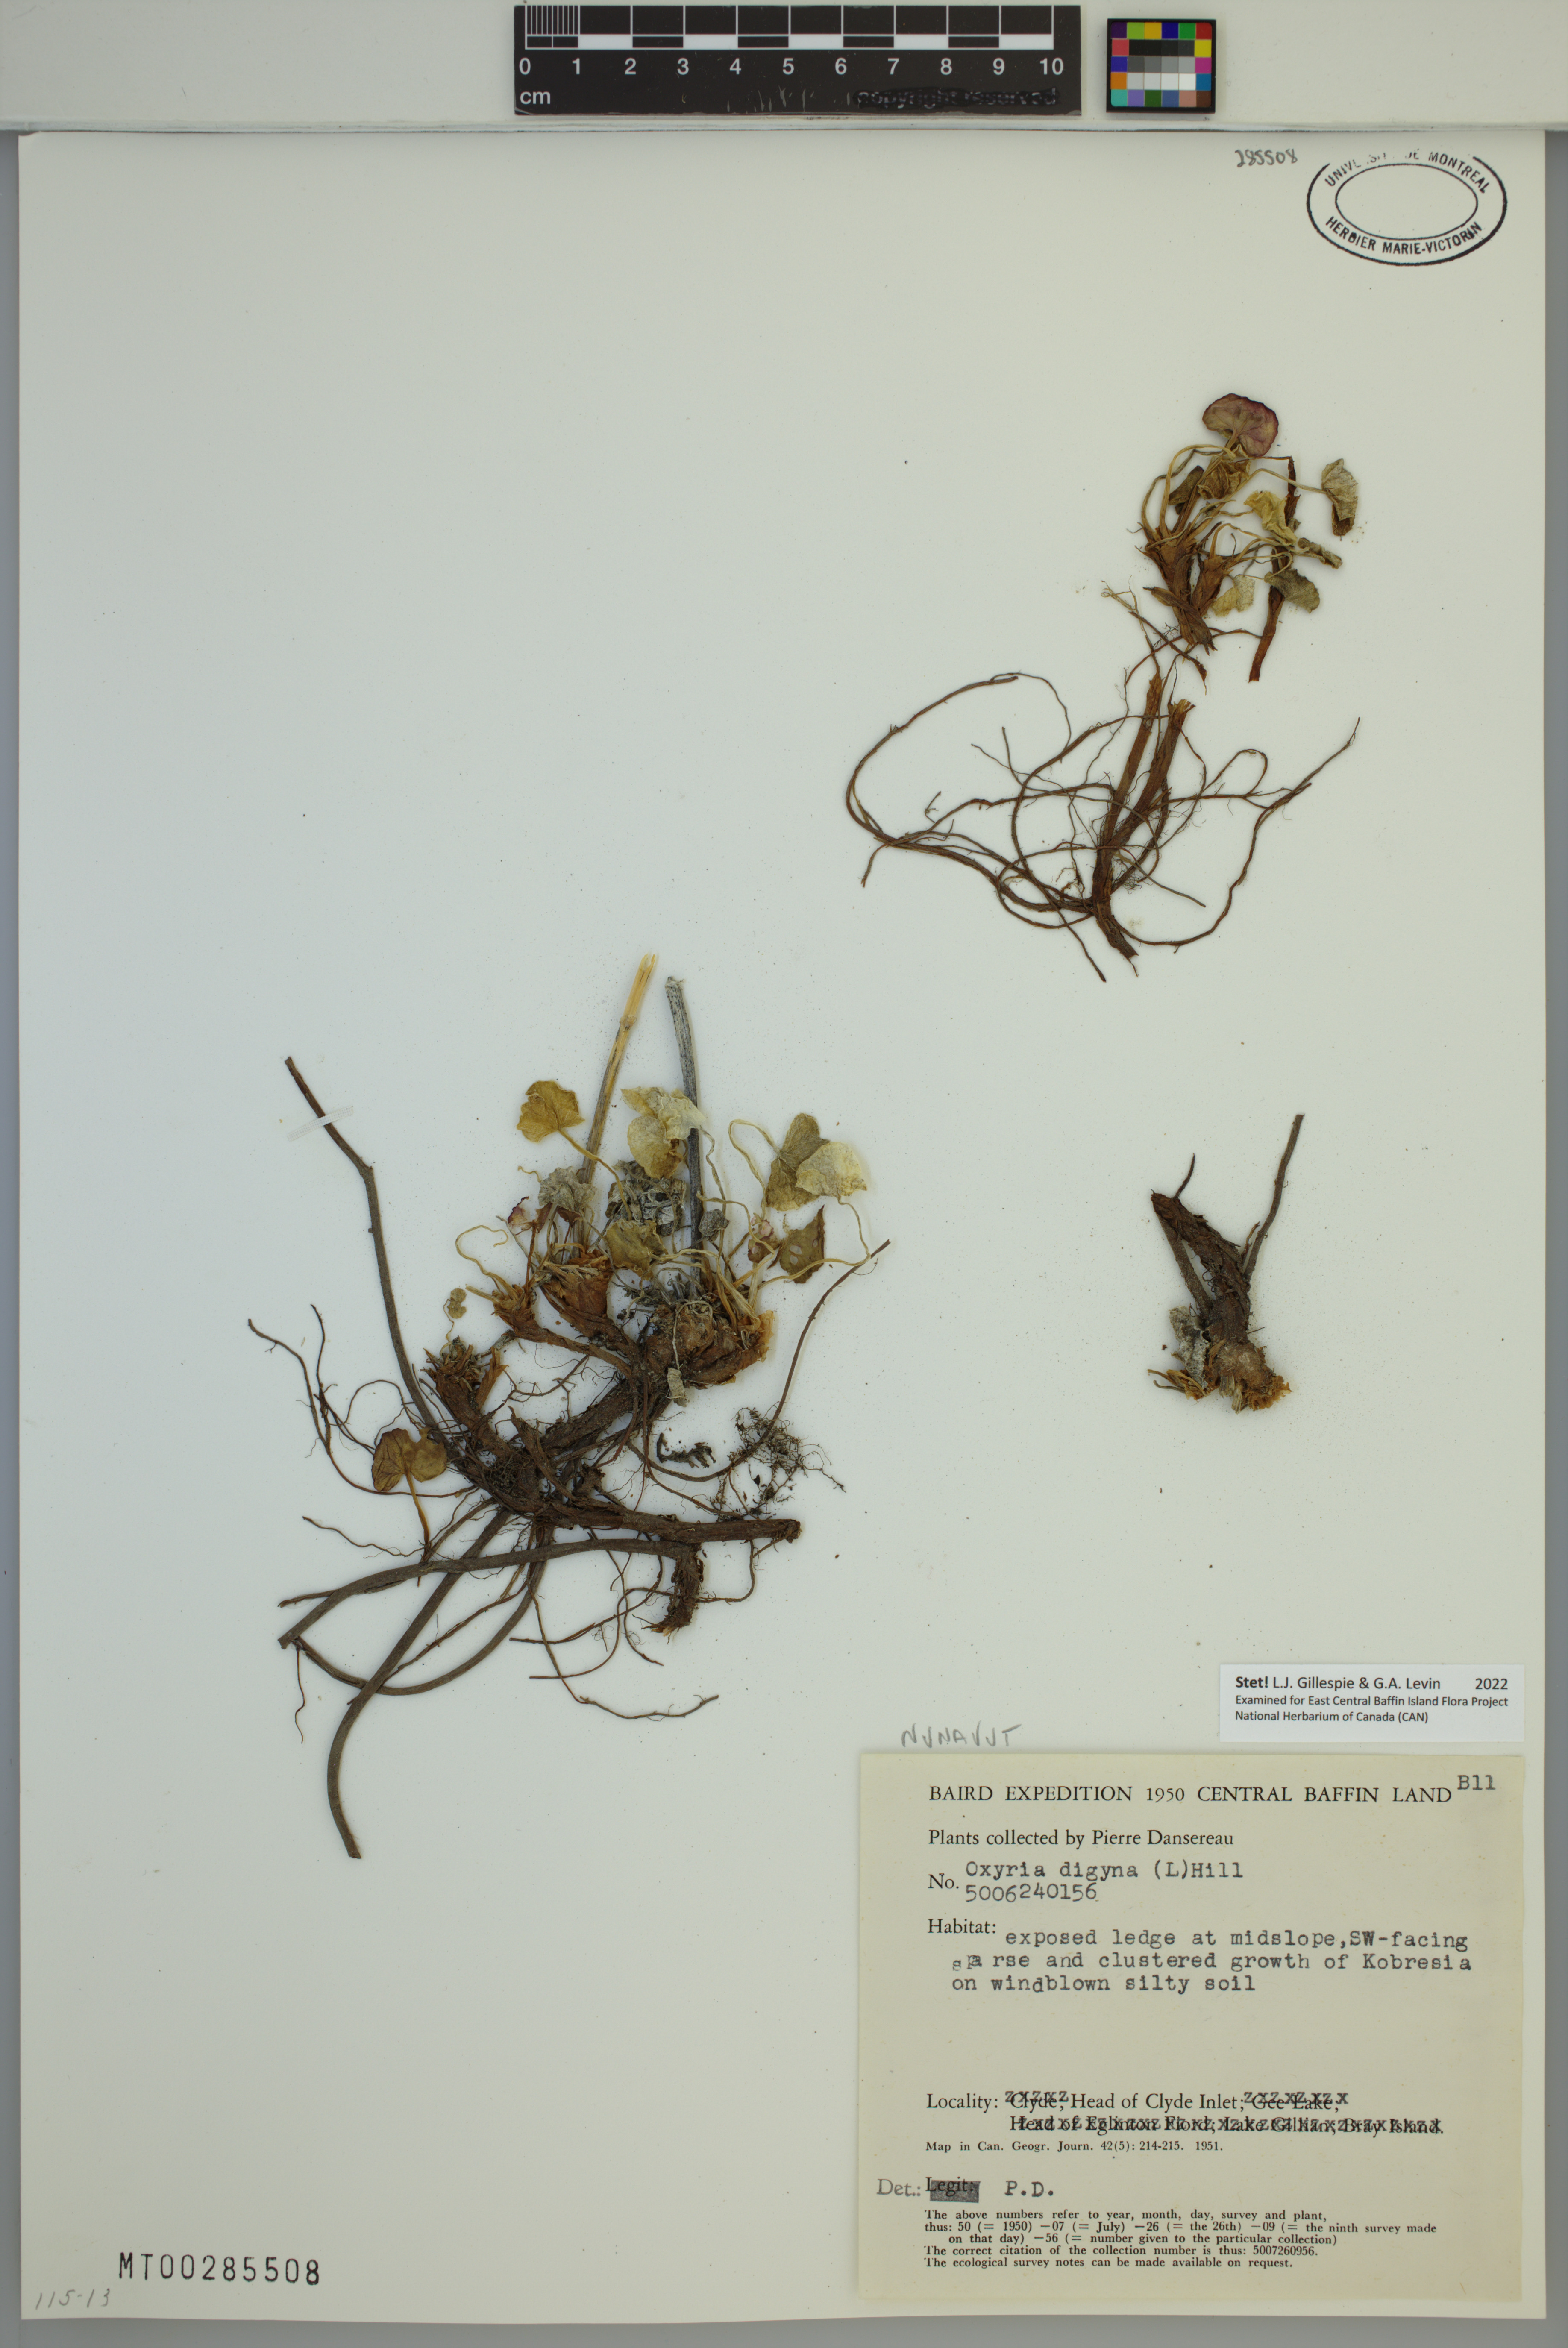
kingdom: Plantae
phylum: Tracheophyta
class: Magnoliopsida
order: Caryophyllales
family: Polygonaceae
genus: Oxyria
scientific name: Oxyria digyna
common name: Alpine mountain-sorrel
